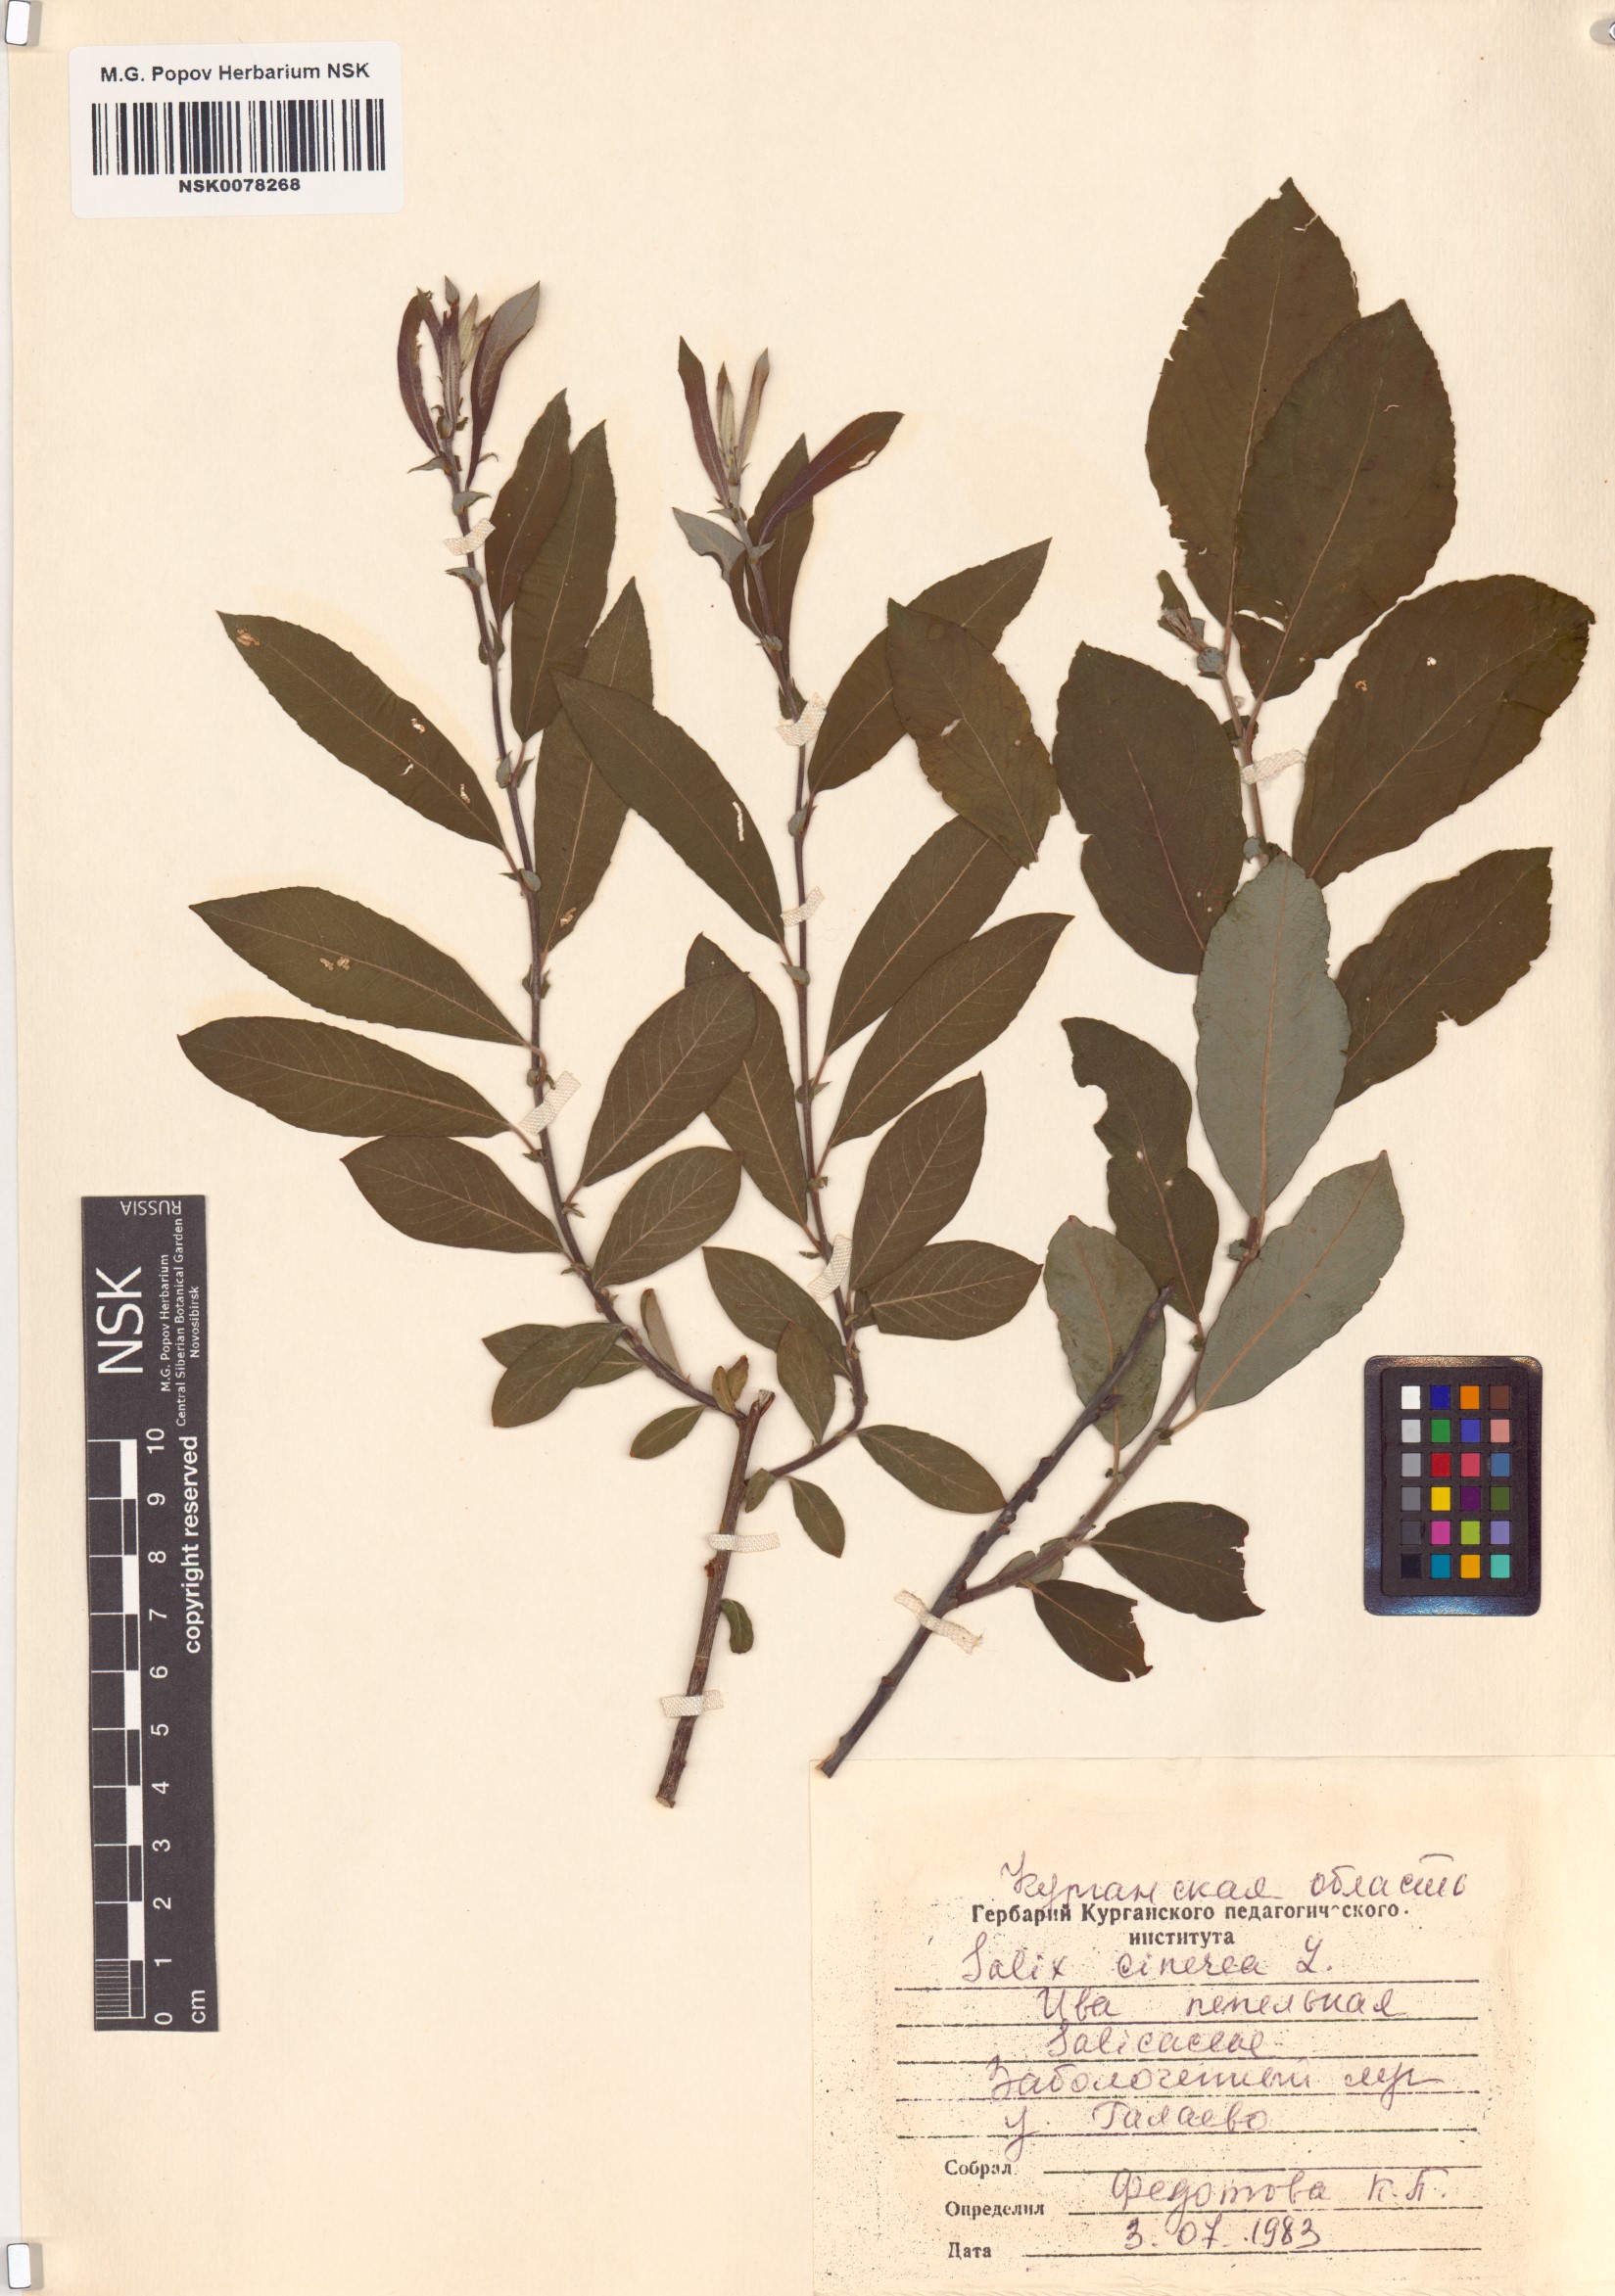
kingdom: Plantae
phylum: Tracheophyta
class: Magnoliopsida
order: Malpighiales
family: Salicaceae
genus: Salix
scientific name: Salix cinerea
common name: Common sallow
